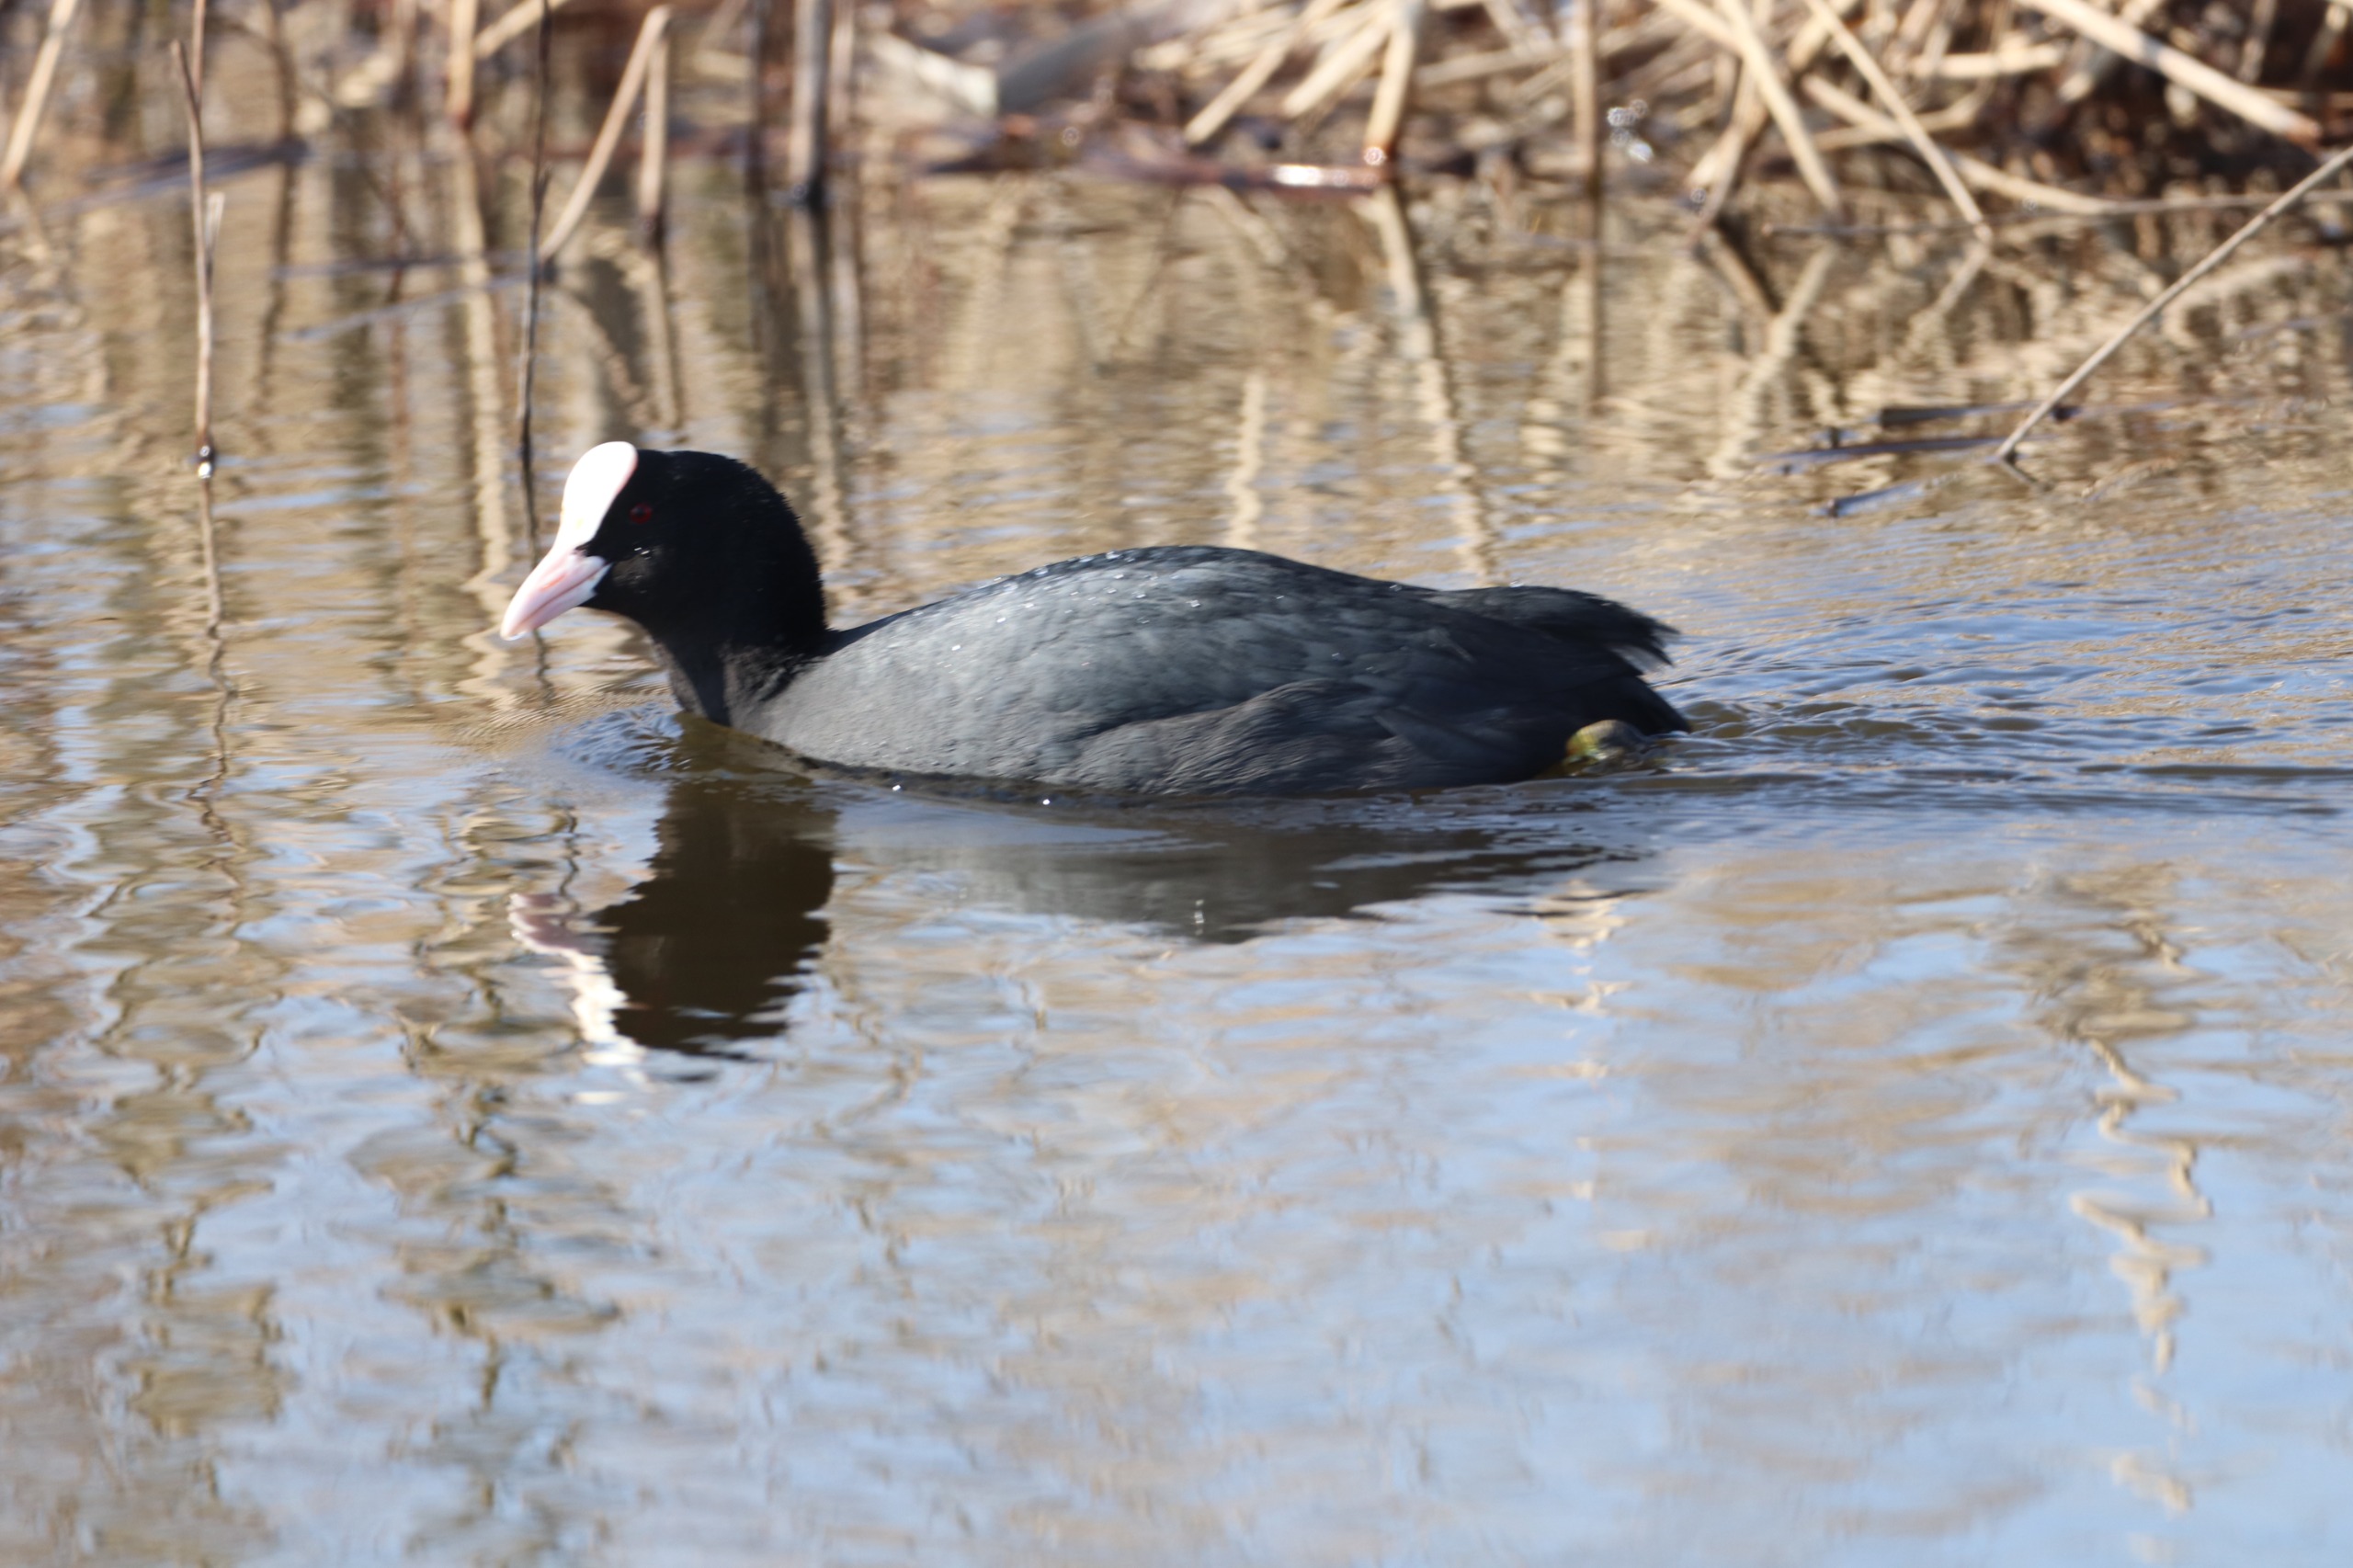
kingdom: Animalia
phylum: Chordata
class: Aves
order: Gruiformes
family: Rallidae
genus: Fulica
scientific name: Fulica atra
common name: Blishøne
